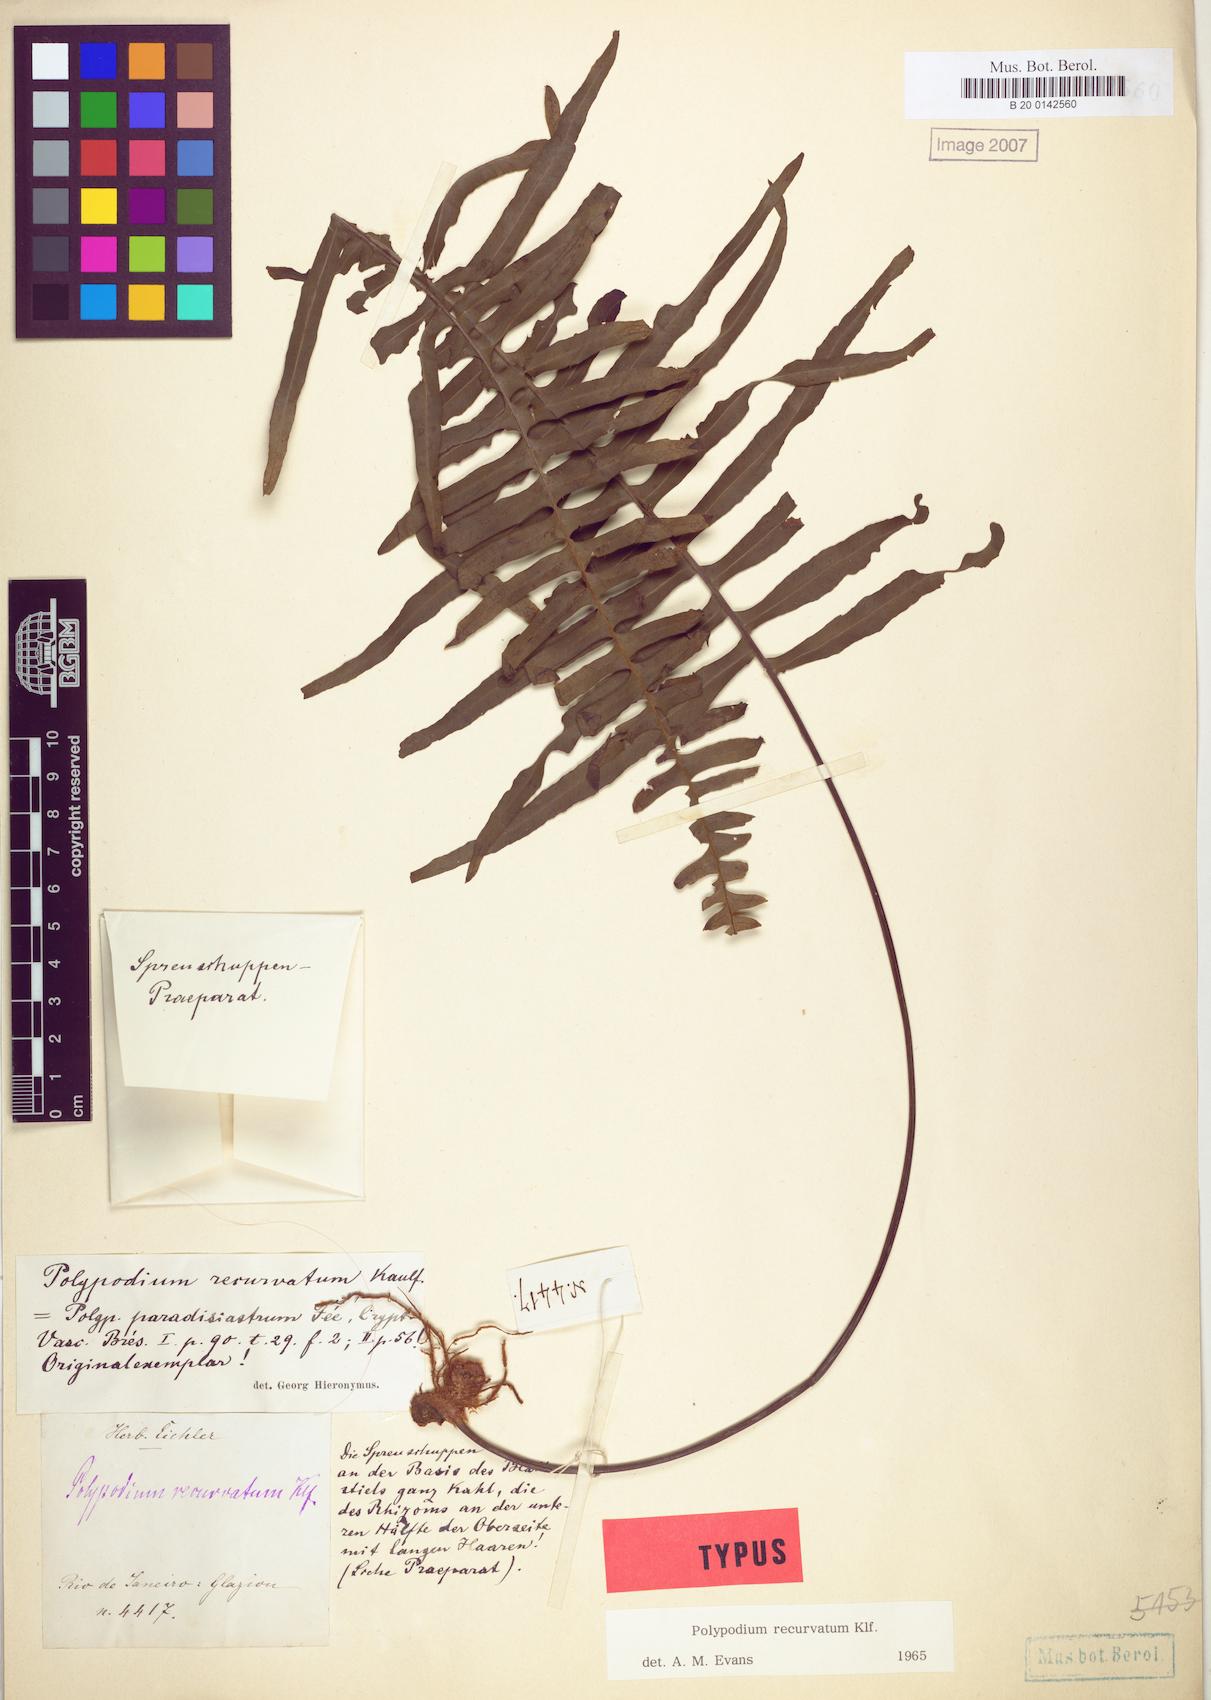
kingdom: Plantae
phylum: Tracheophyta
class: Polypodiopsida
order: Polypodiales
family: Polypodiaceae
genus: Pecluma
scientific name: Pecluma recurvata
